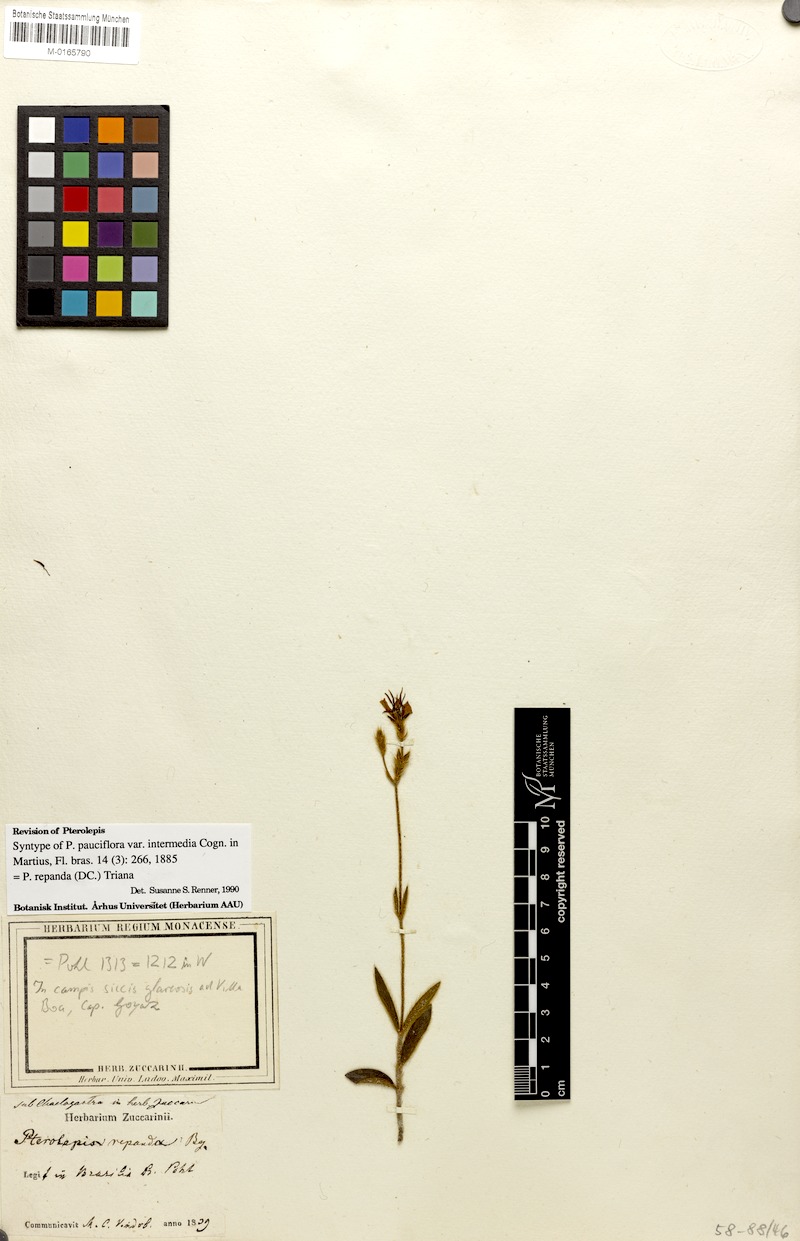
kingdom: Plantae
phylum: Tracheophyta
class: Magnoliopsida
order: Myrtales
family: Melastomataceae
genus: Pterolepis
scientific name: Pterolepis repanda
